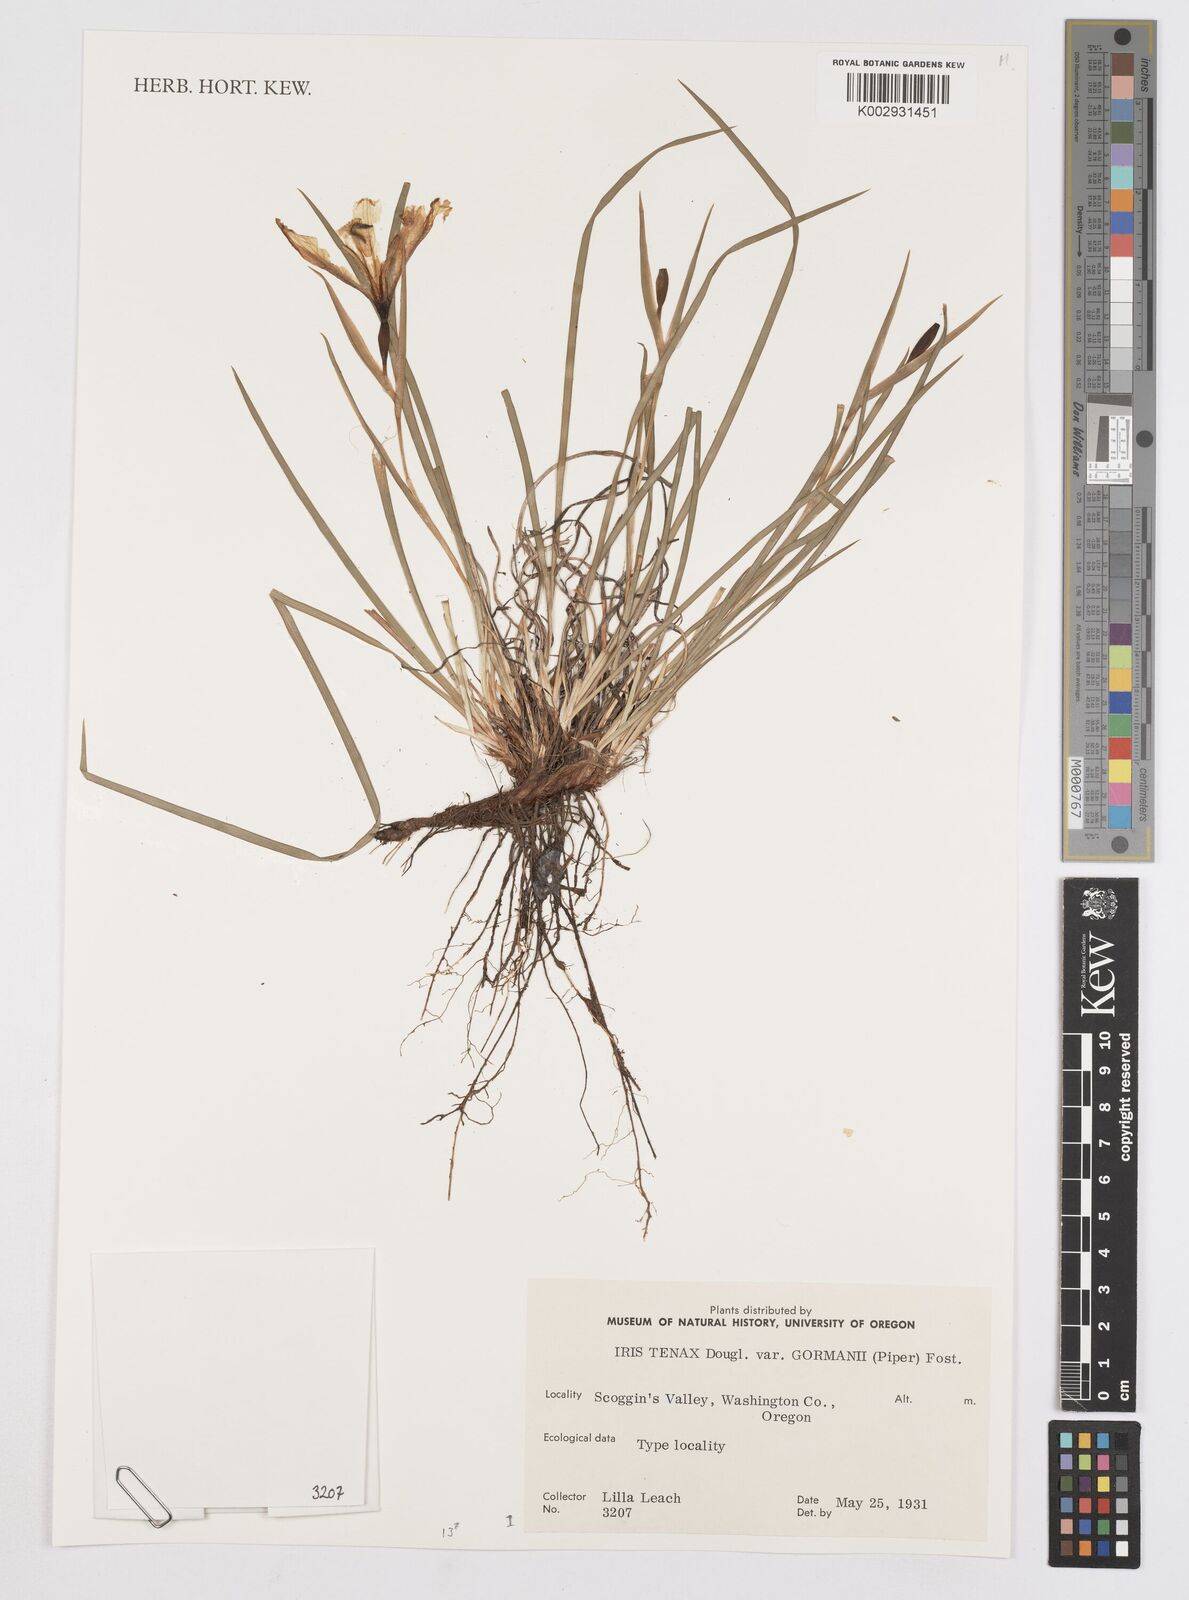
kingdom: Plantae
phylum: Tracheophyta
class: Liliopsida
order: Asparagales
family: Iridaceae
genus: Iris
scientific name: Iris tenax
